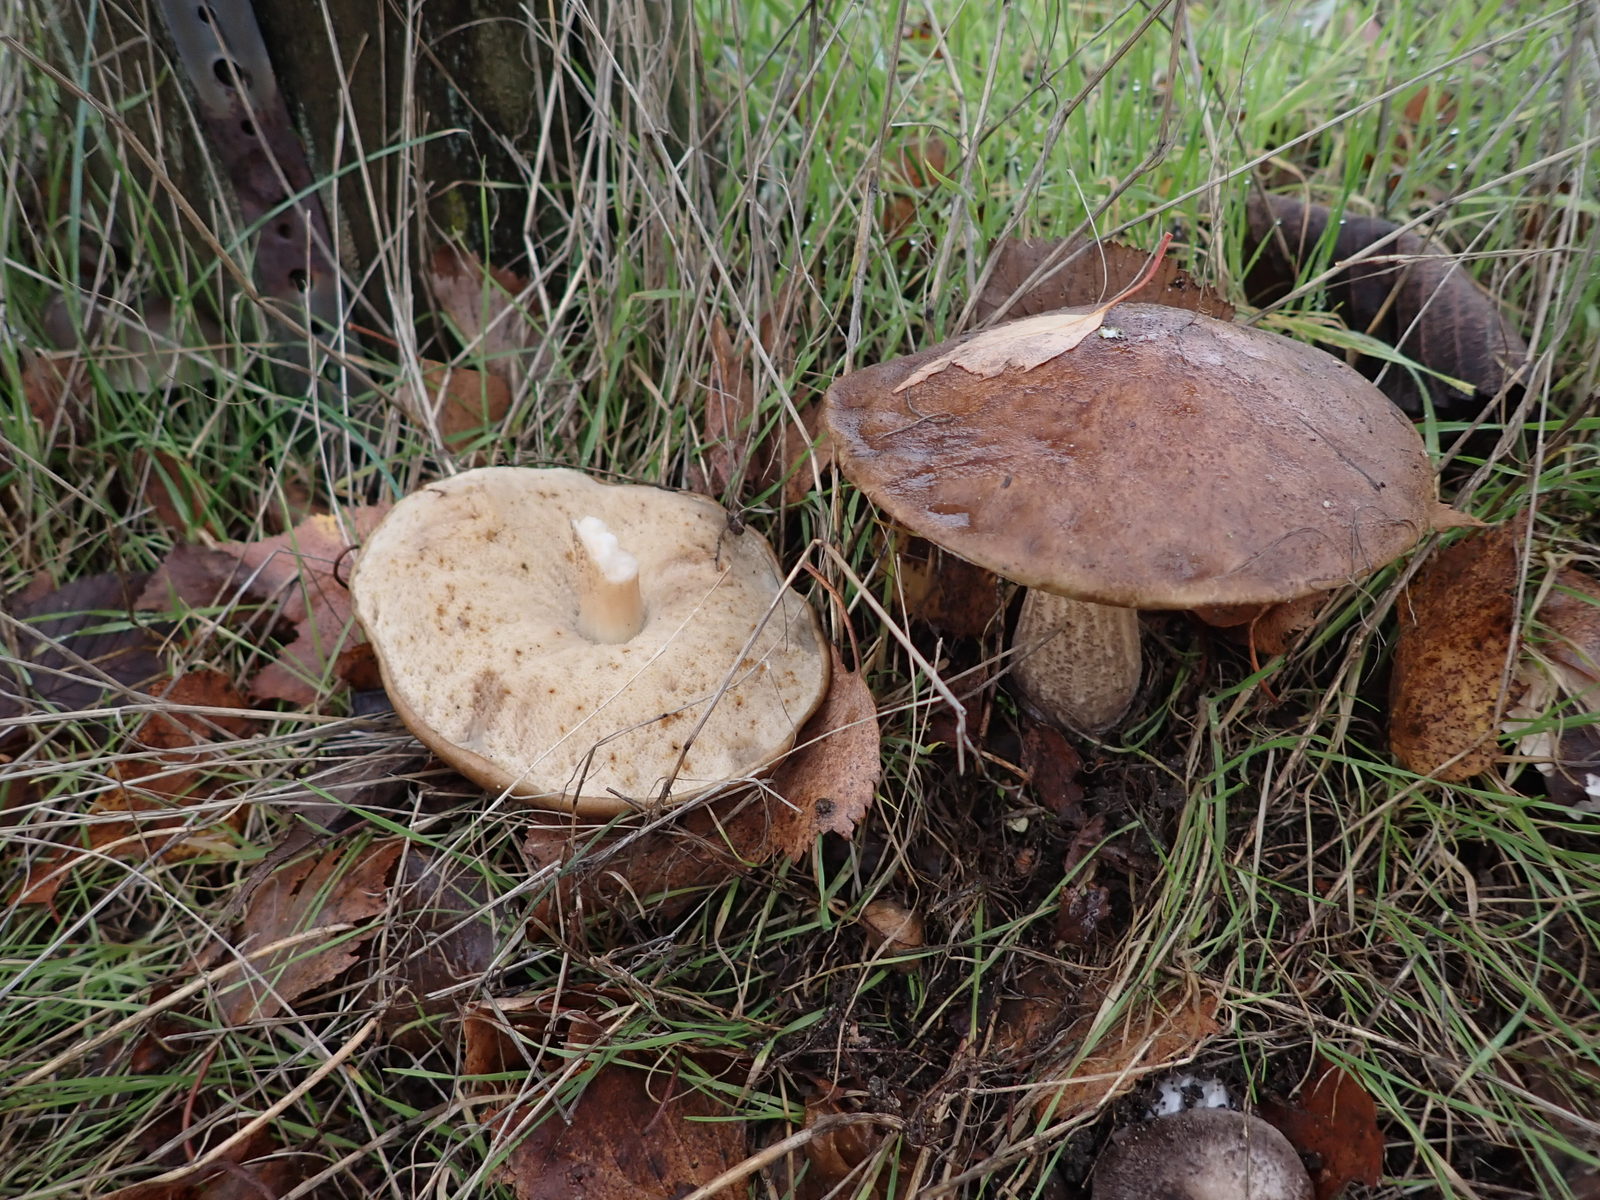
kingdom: Fungi
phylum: Basidiomycota
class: Agaricomycetes
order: Boletales
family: Boletaceae
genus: Leccinum
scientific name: Leccinum scabrum
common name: brun skælrørhat
